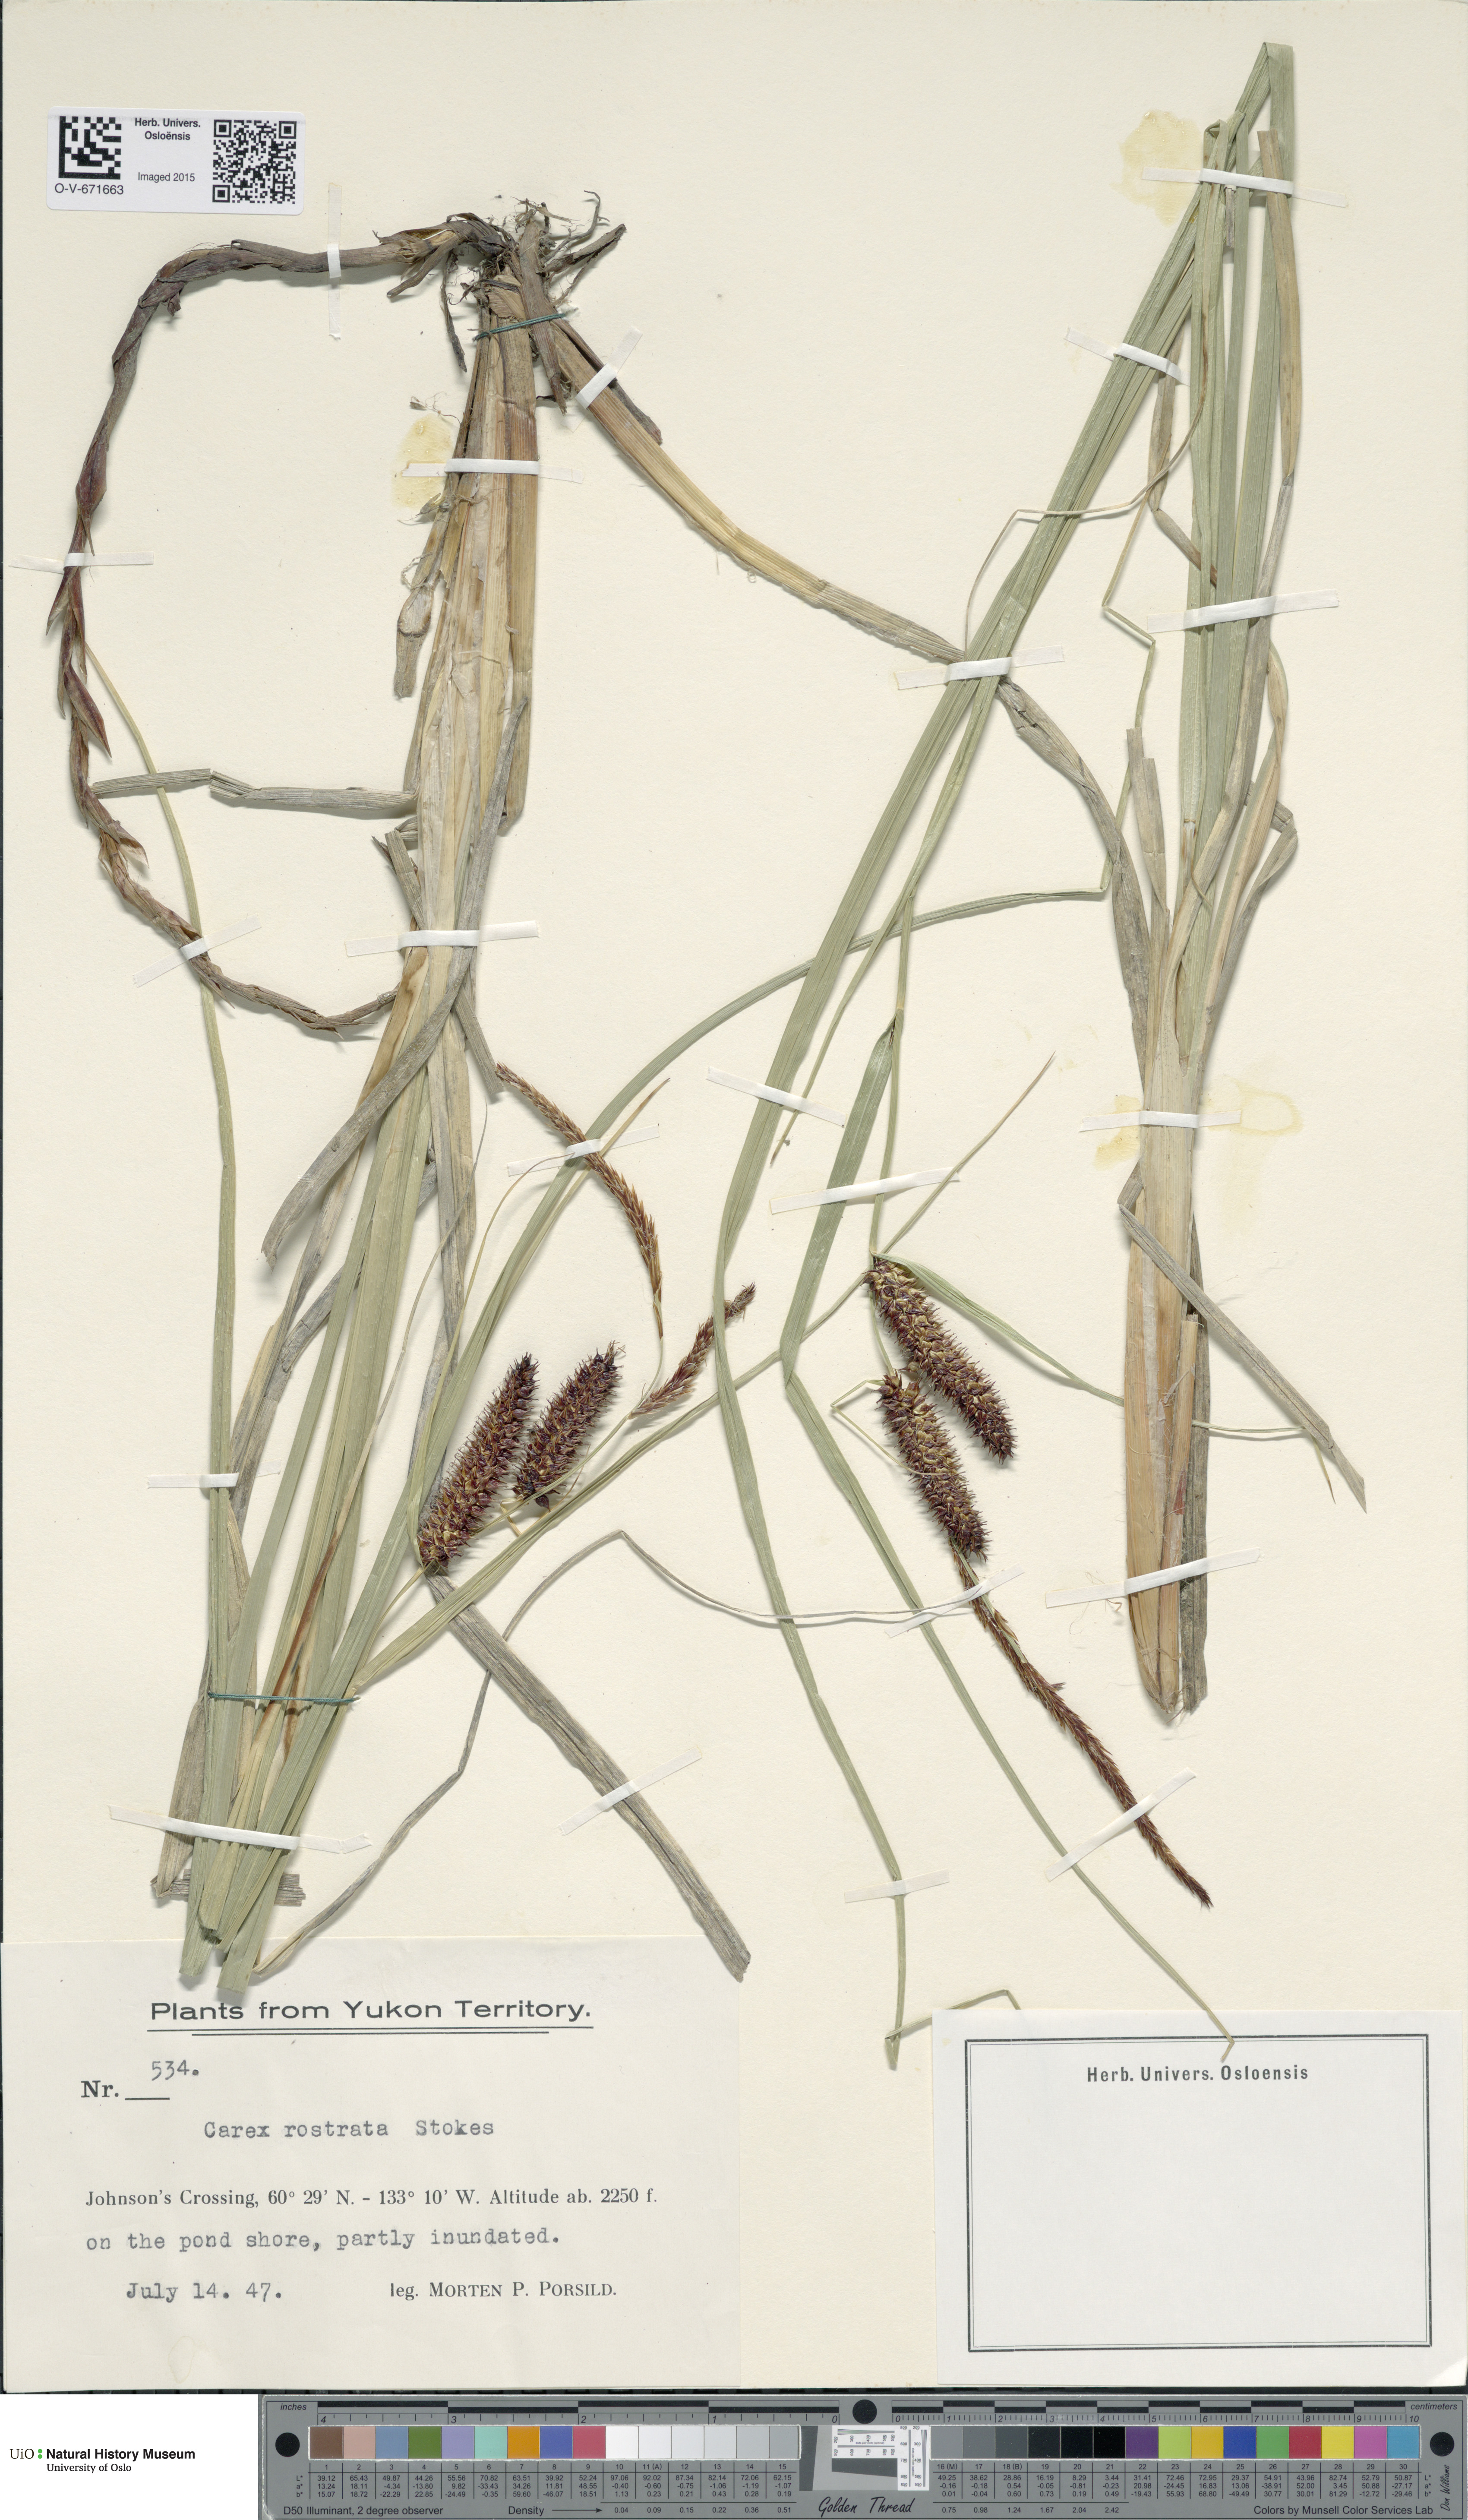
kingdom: Plantae
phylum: Tracheophyta
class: Liliopsida
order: Poales
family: Cyperaceae
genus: Carex
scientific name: Carex rostrata
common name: Bottle sedge
